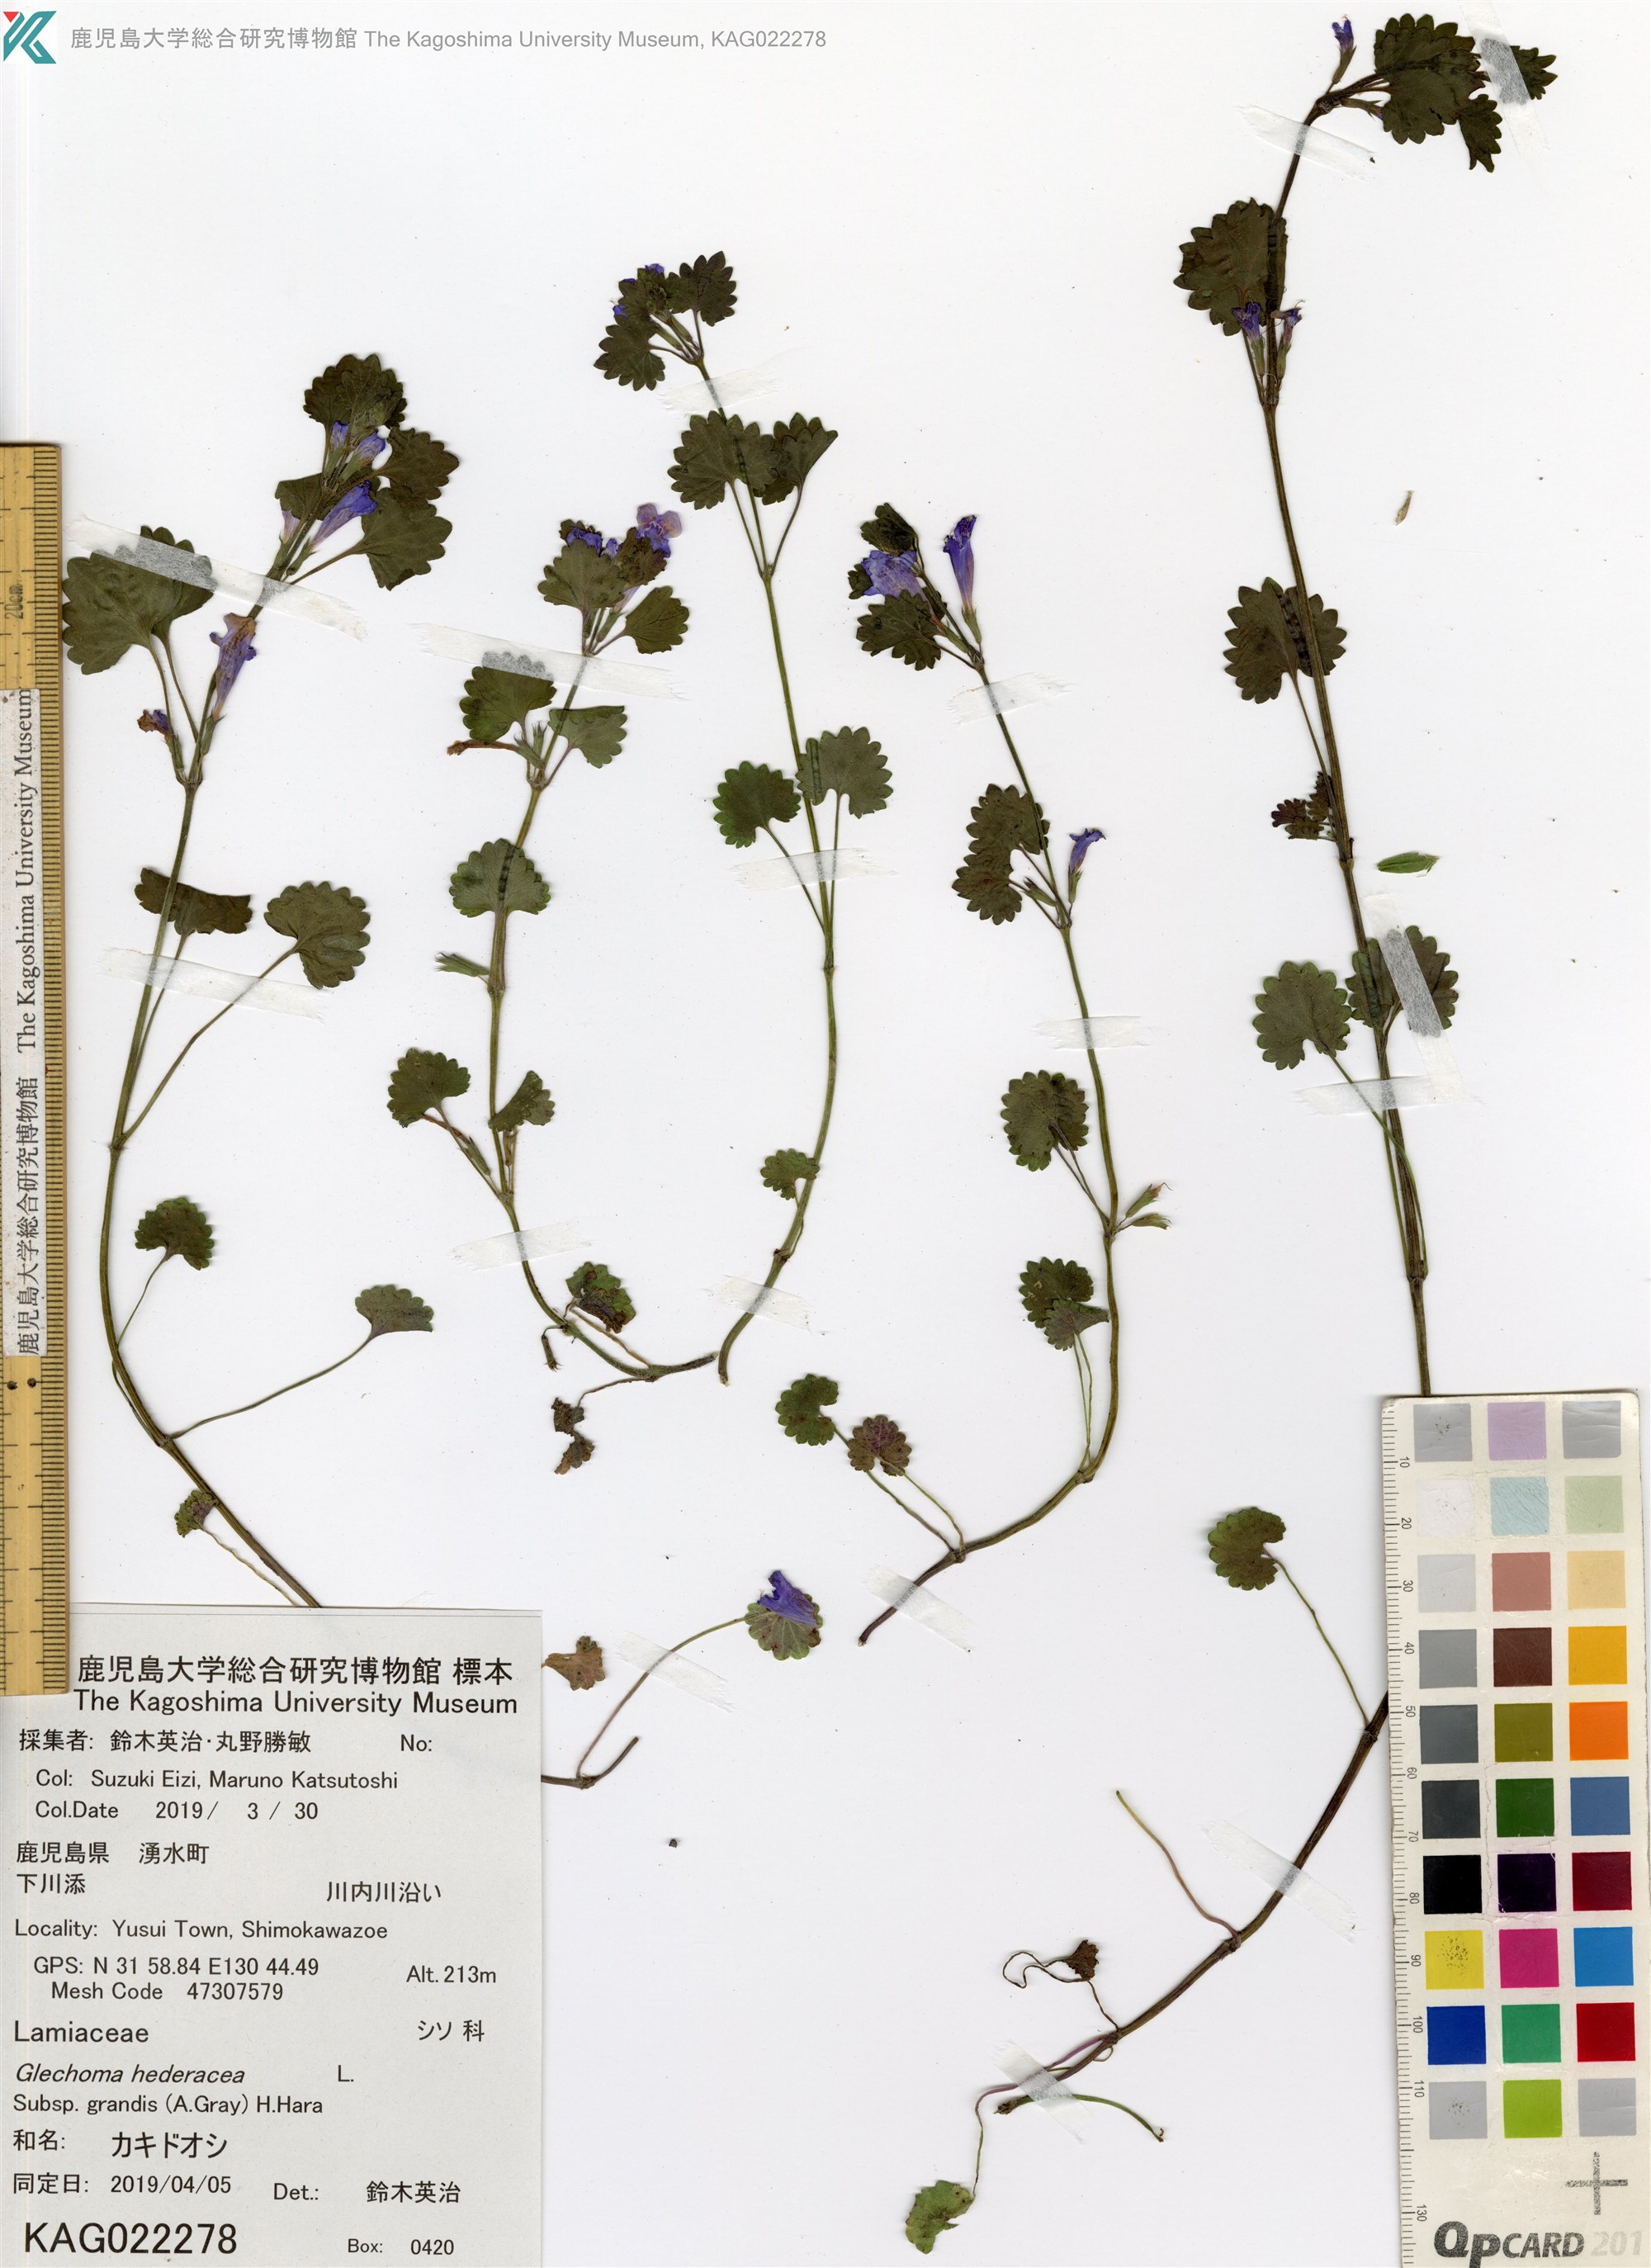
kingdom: Plantae
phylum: Tracheophyta
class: Magnoliopsida
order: Lamiales
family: Lamiaceae
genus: Glechoma
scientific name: Glechoma grandis
